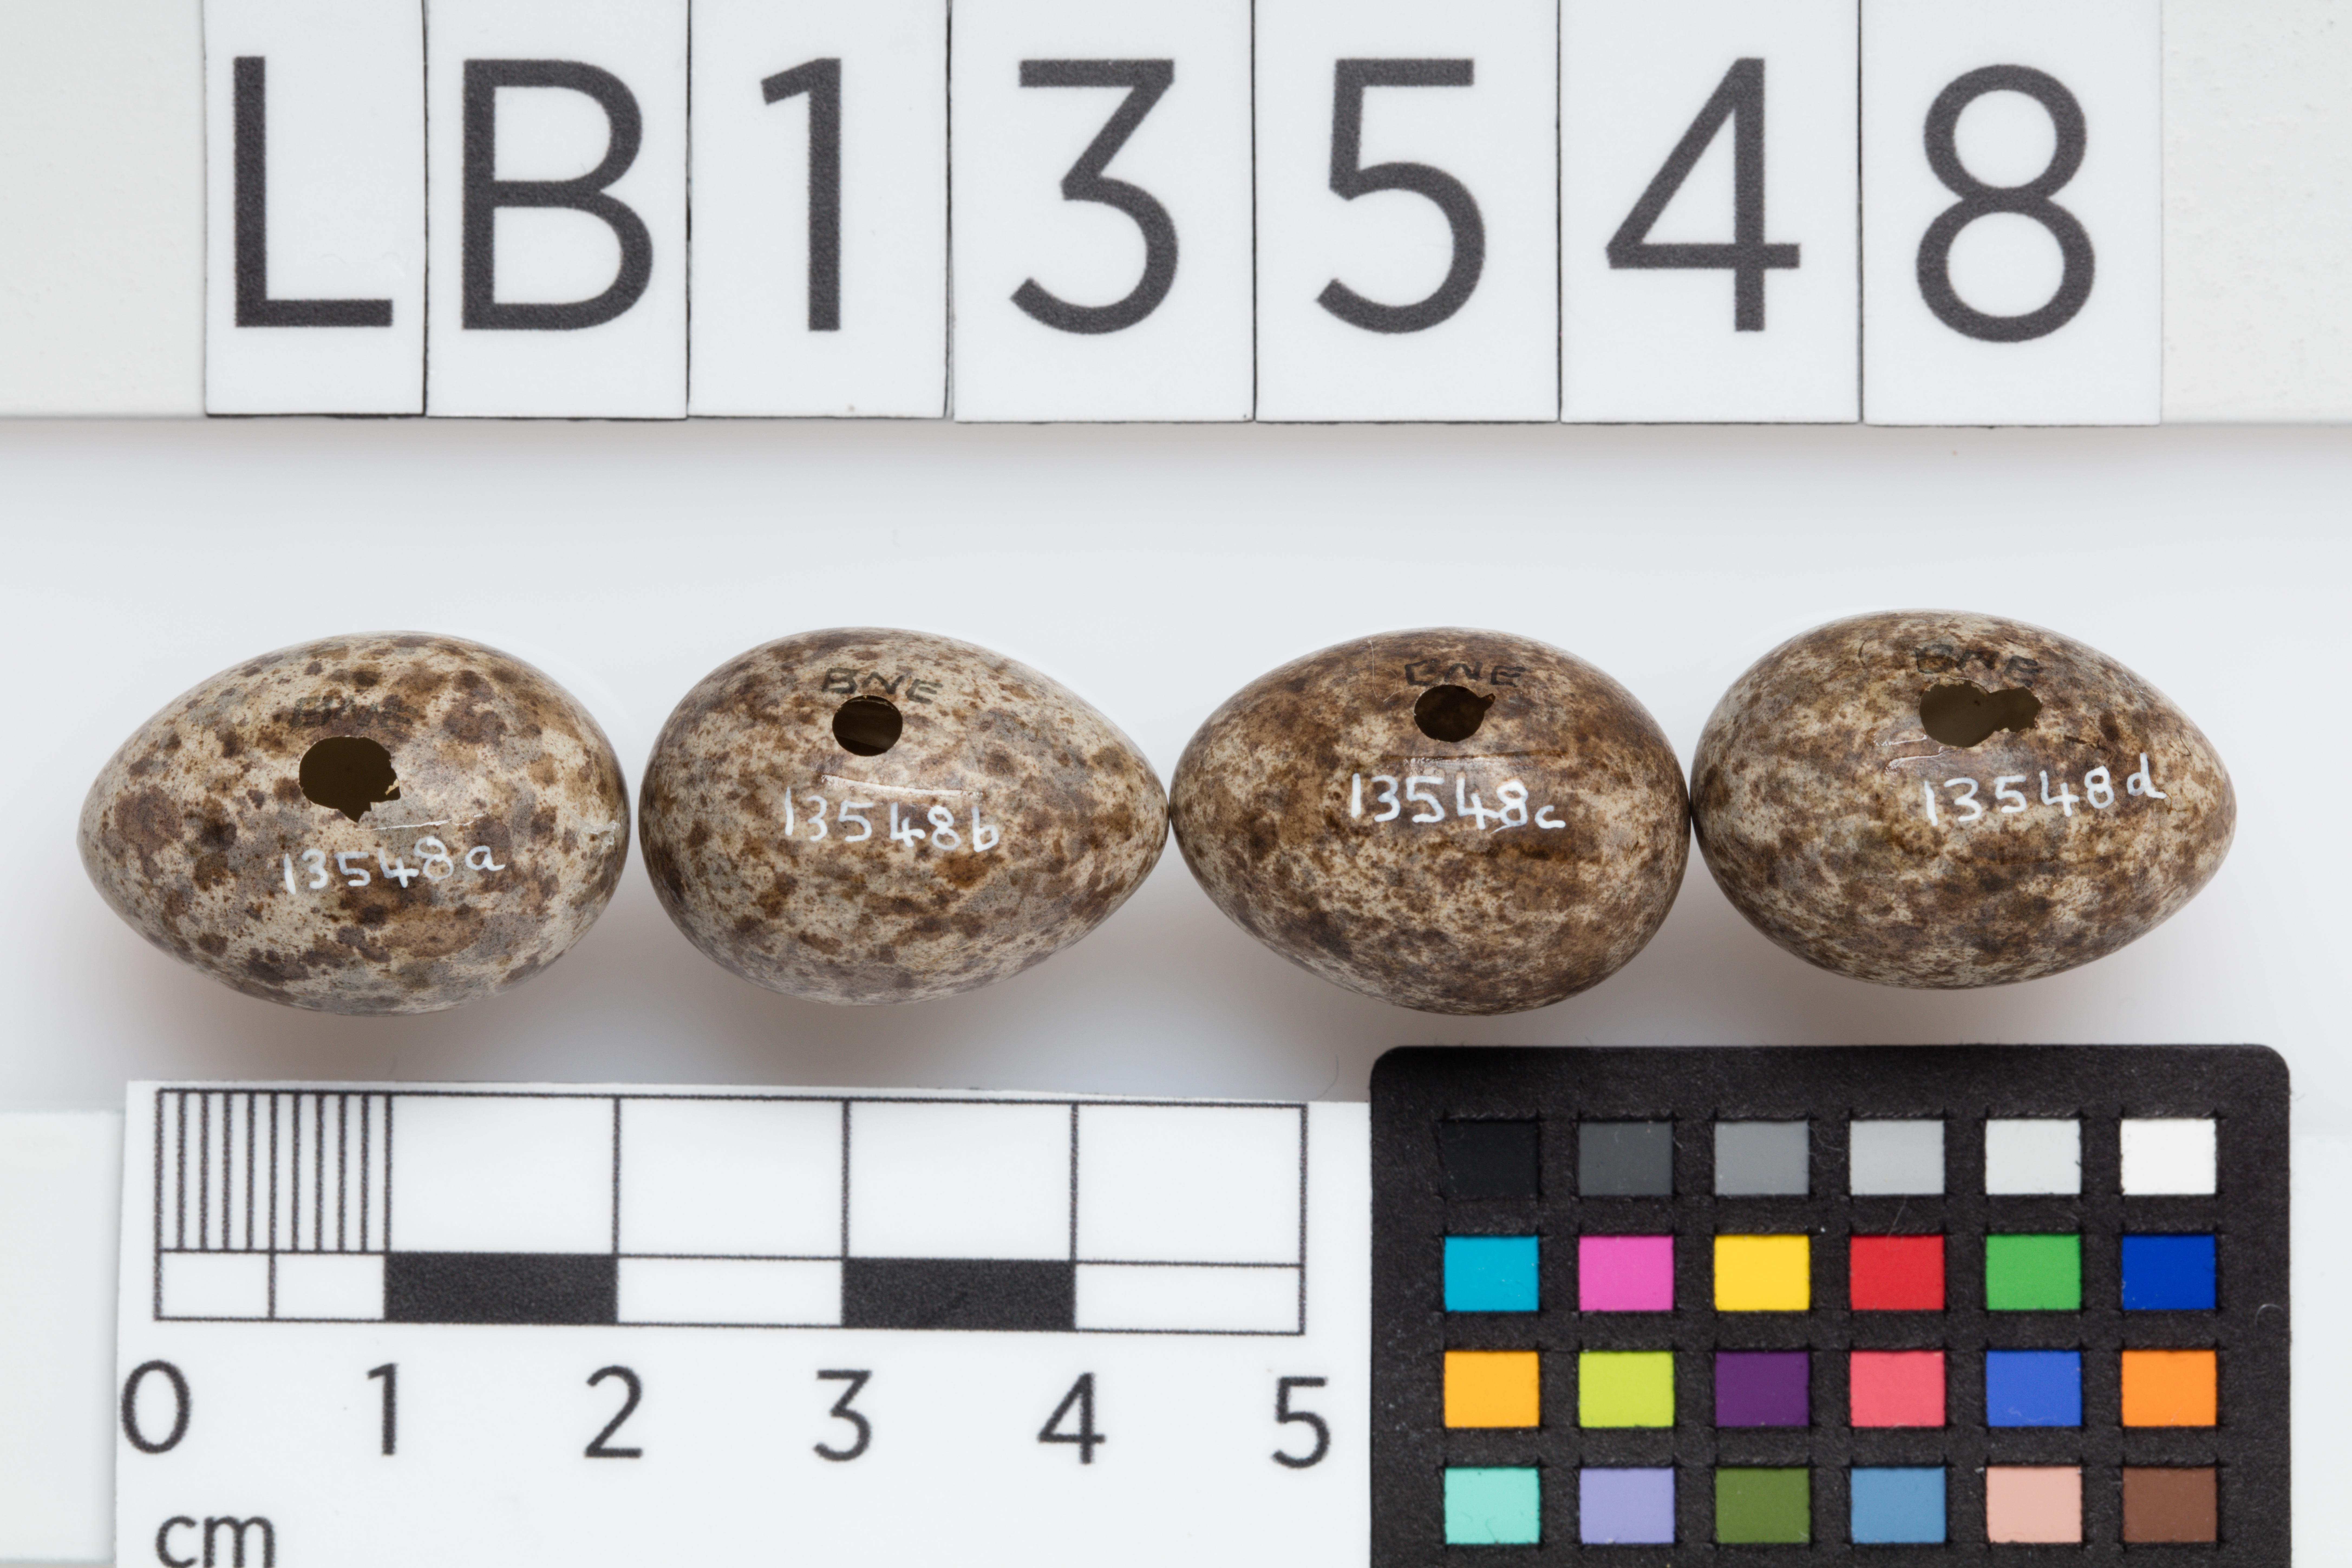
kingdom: Animalia
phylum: Chordata
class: Aves
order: Passeriformes
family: Motacillidae
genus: Anthus
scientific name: Anthus novaeseelandiae
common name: New zealand pipit
